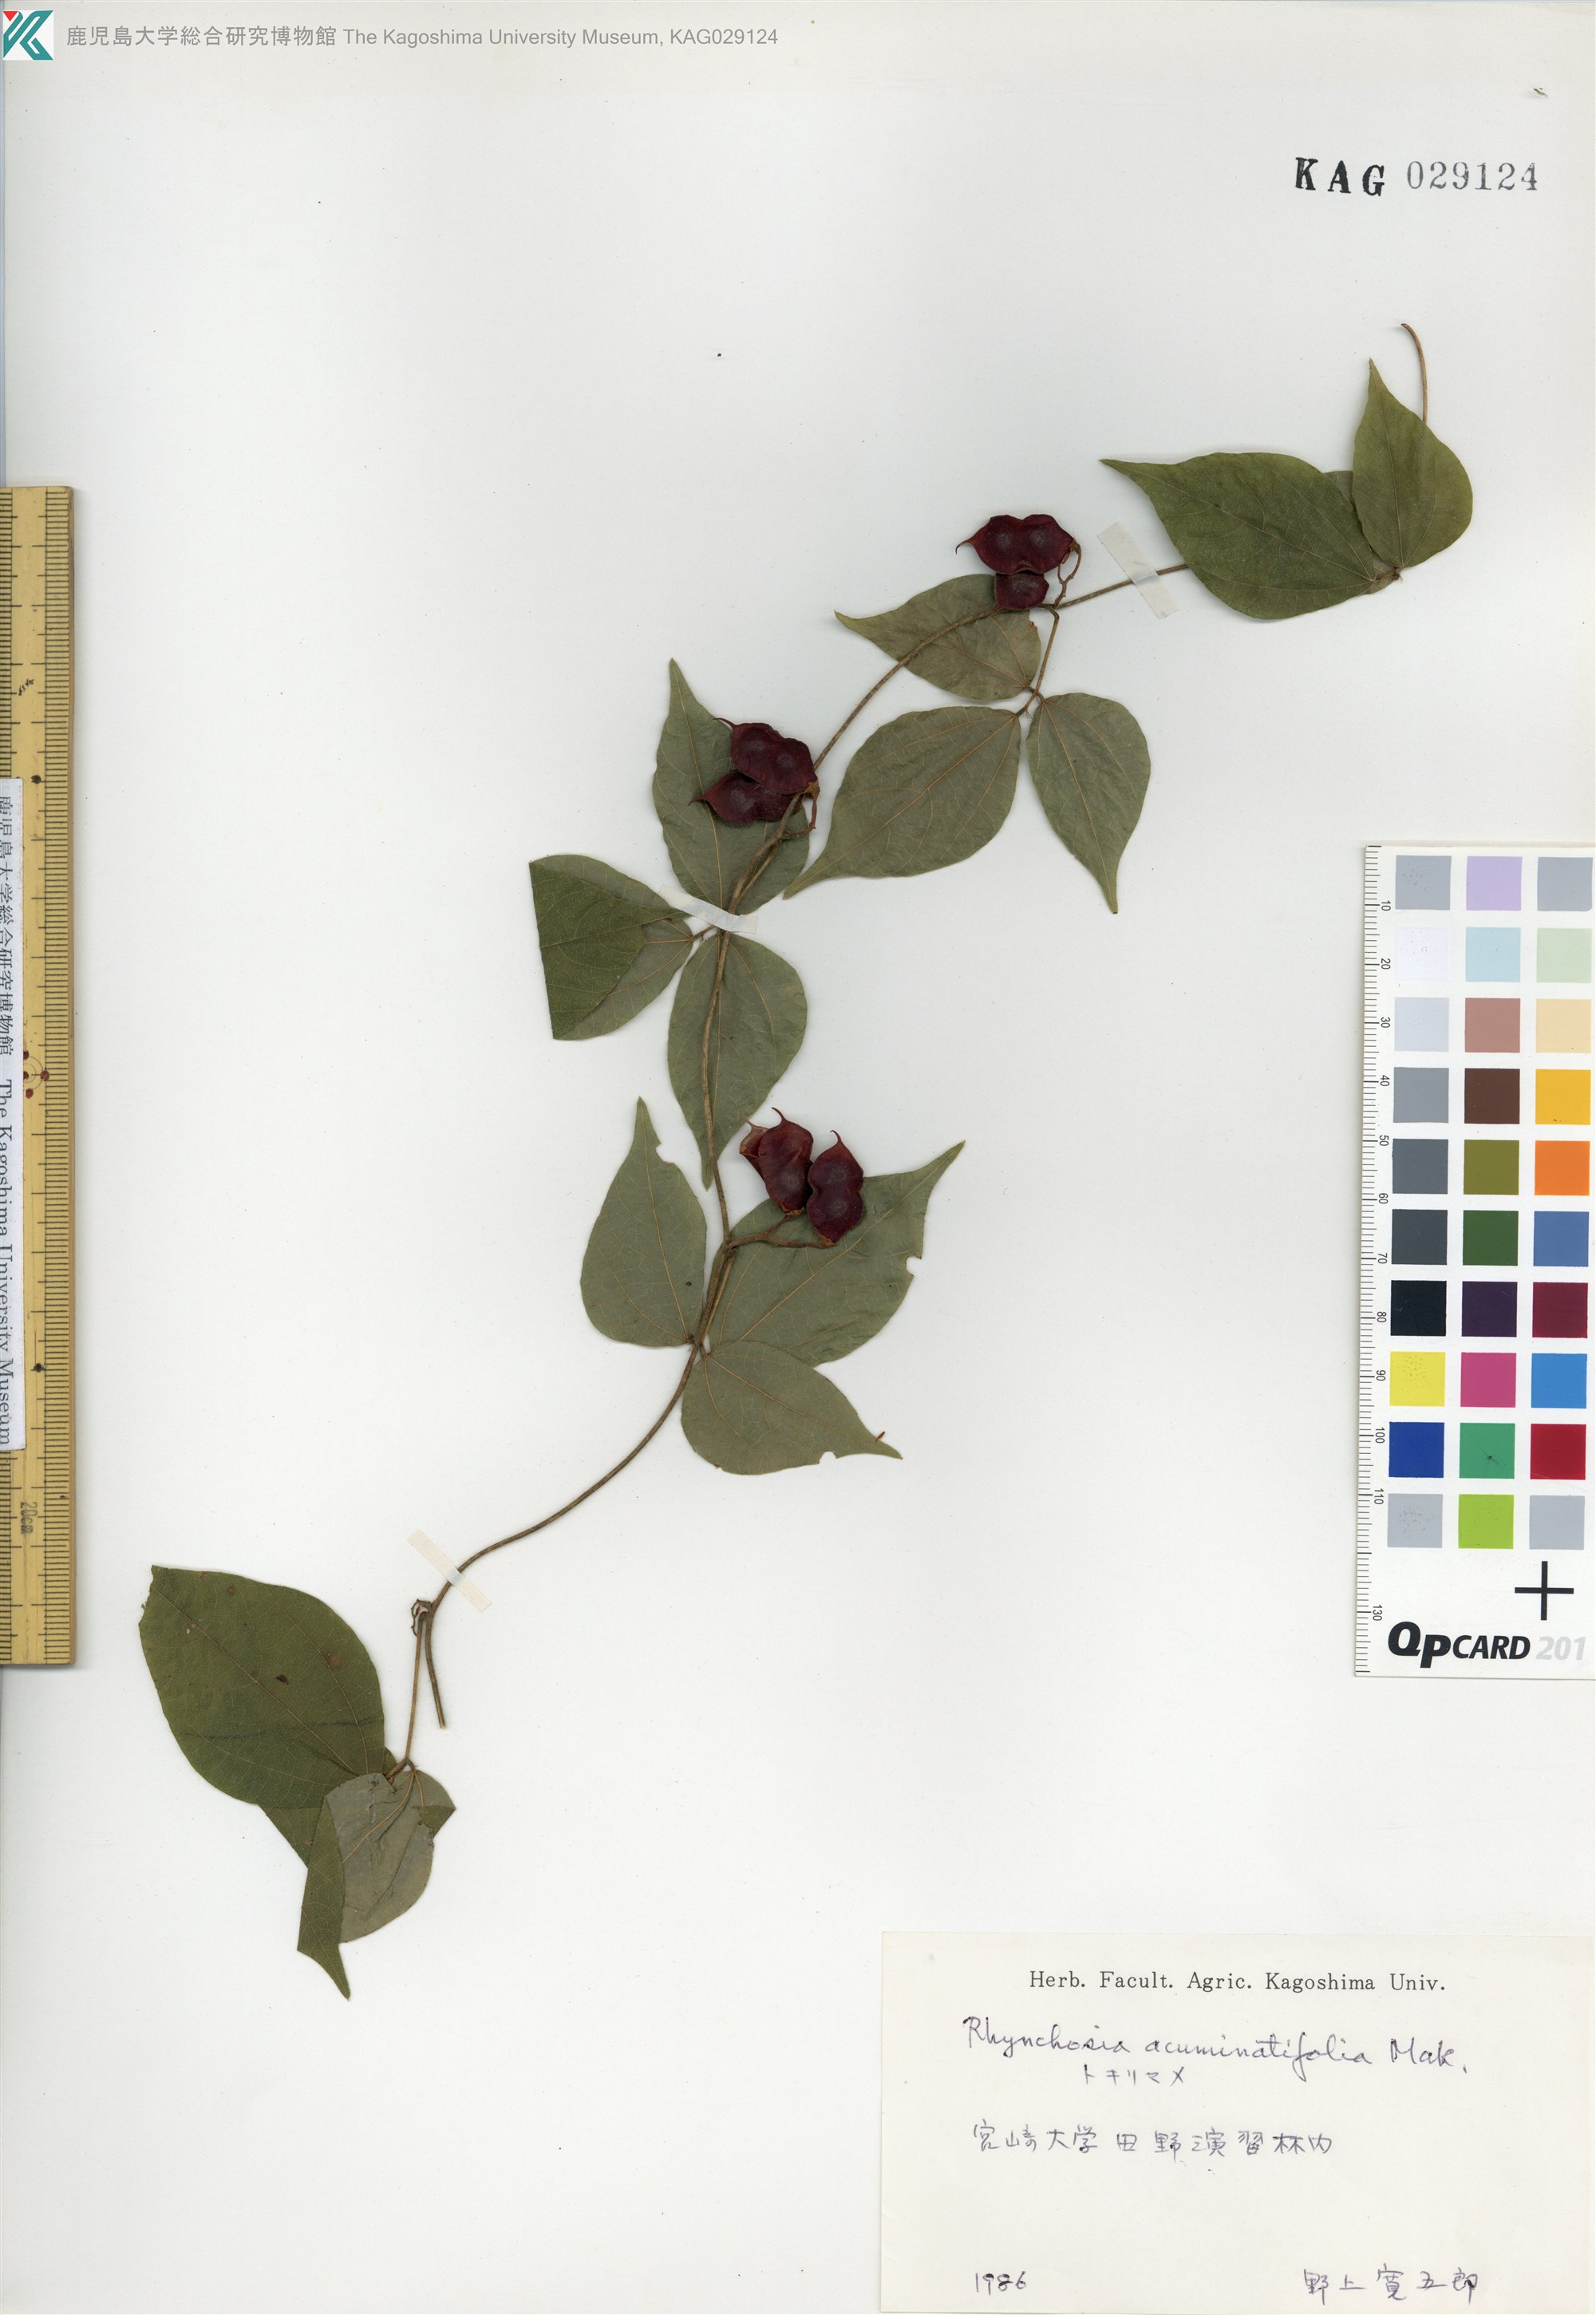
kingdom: Plantae
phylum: Tracheophyta
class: Magnoliopsida
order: Fabales
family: Fabaceae
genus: Rhynchosia
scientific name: Rhynchosia acuminatifolia
